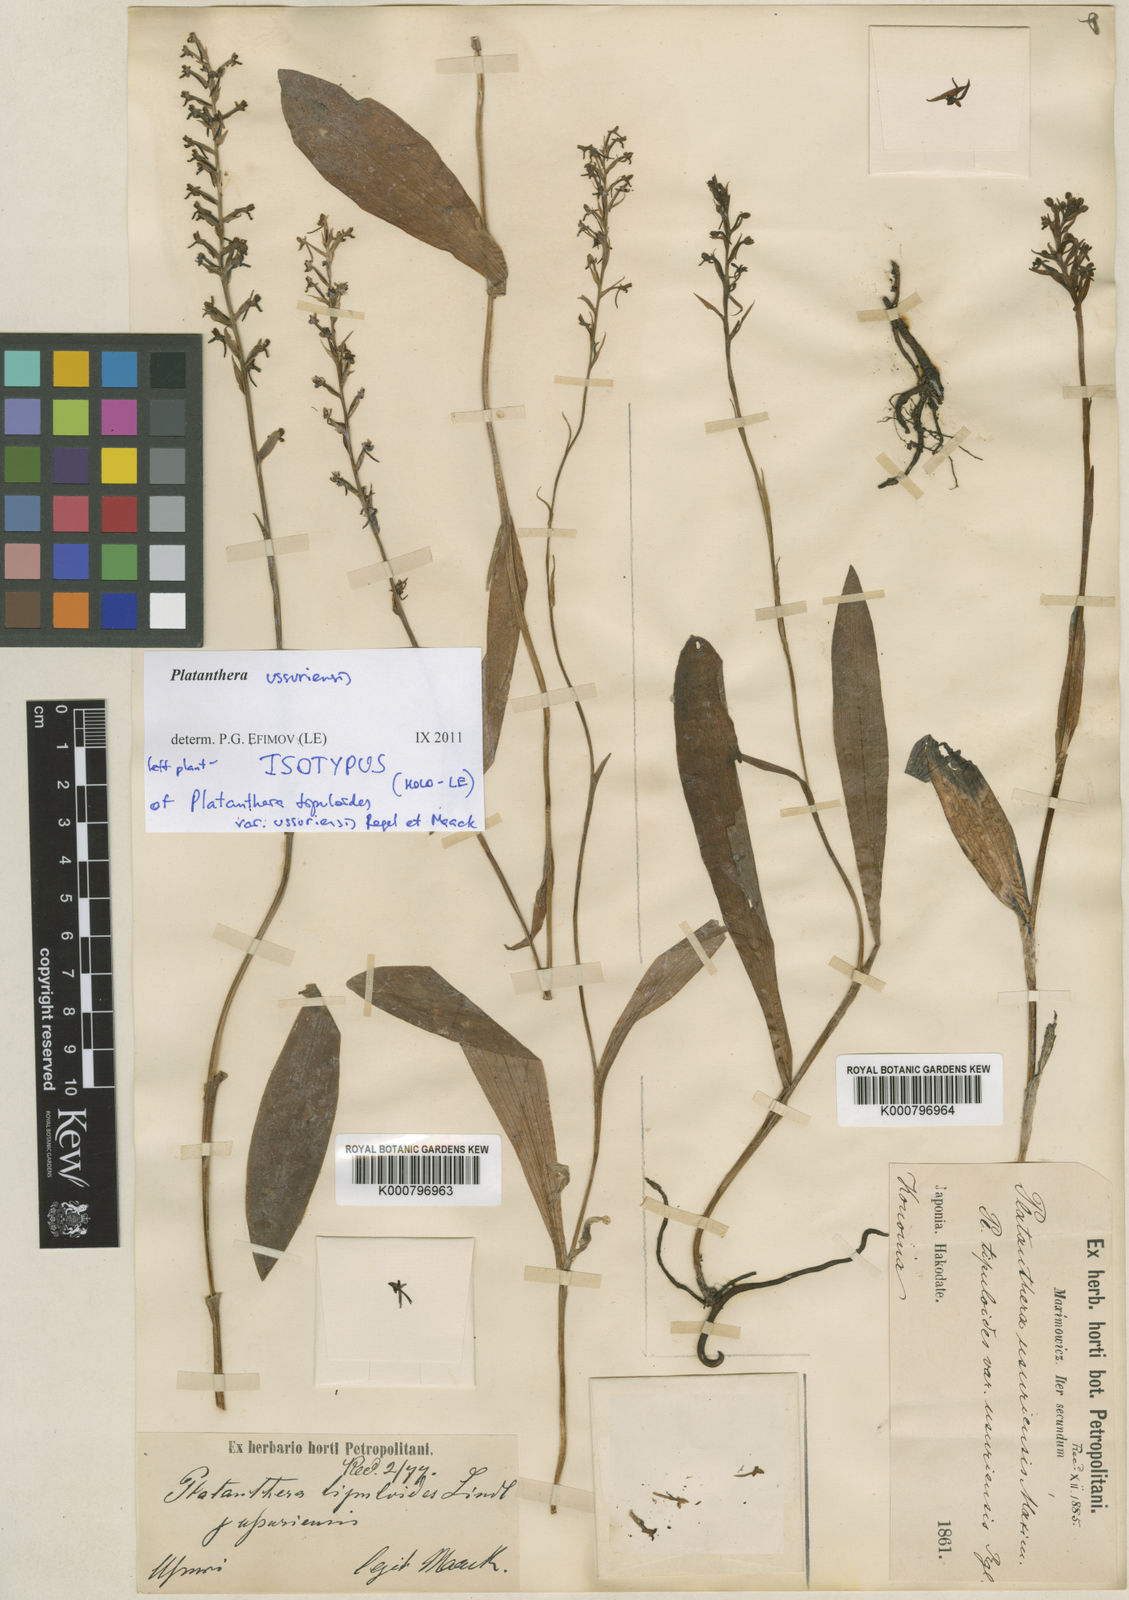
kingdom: Plantae
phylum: Tracheophyta
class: Liliopsida
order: Asparagales
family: Orchidaceae
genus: Platanthera
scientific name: Platanthera ussuriensis
